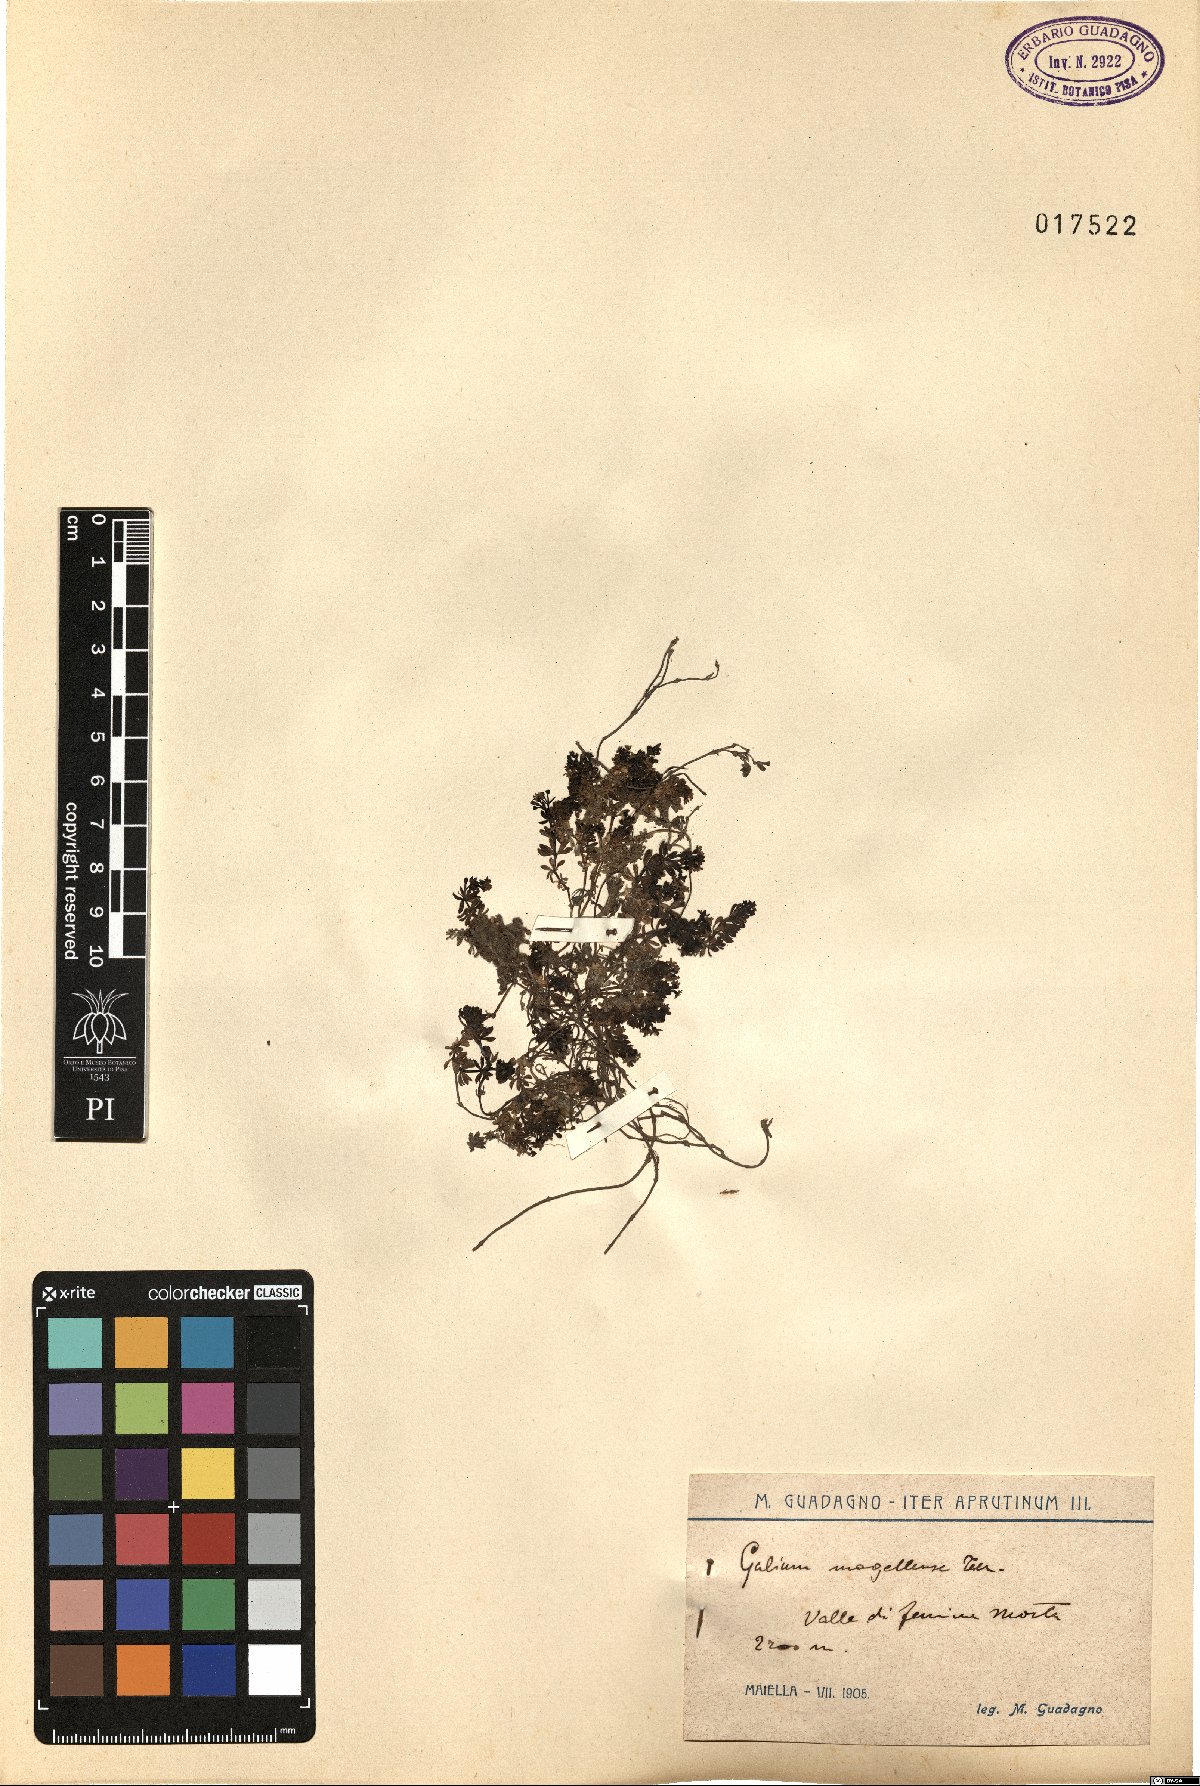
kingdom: Plantae
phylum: Tracheophyta
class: Magnoliopsida
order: Gentianales
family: Rubiaceae
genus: Galium
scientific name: Galium magellense
